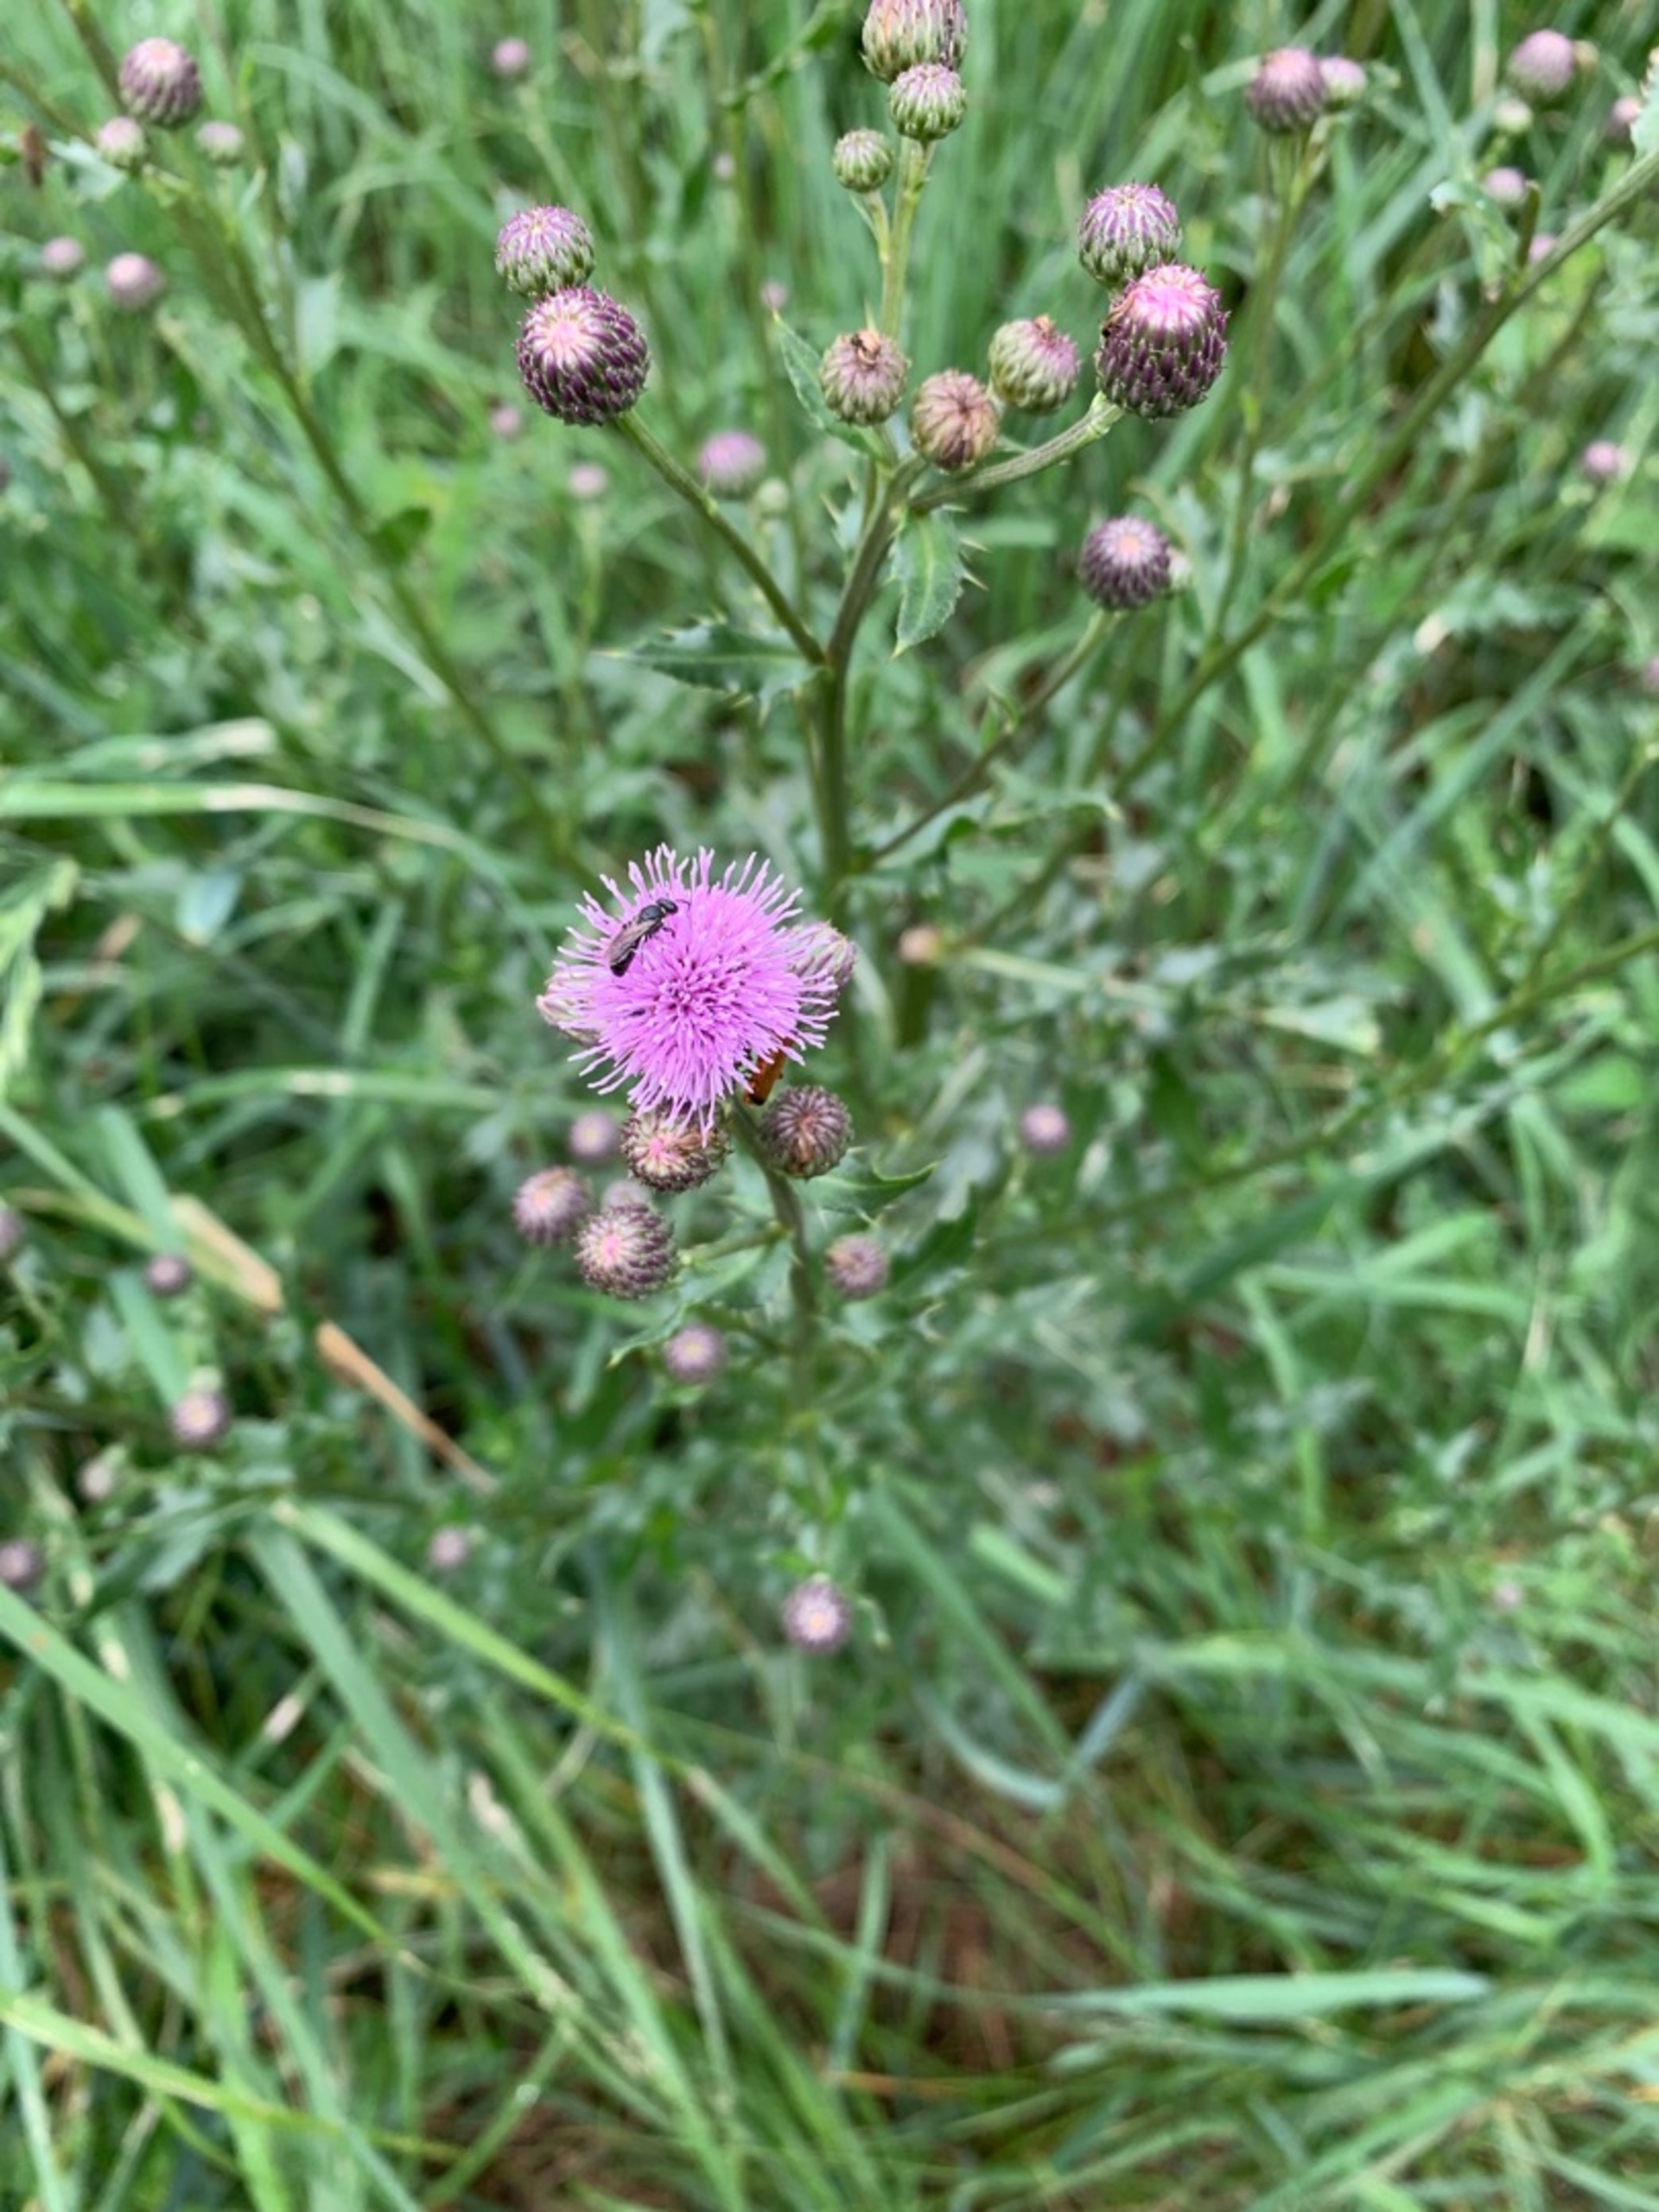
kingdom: Plantae
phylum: Tracheophyta
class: Magnoliopsida
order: Asterales
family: Asteraceae
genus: Cirsium
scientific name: Cirsium arvense
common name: Ager-tidsel
